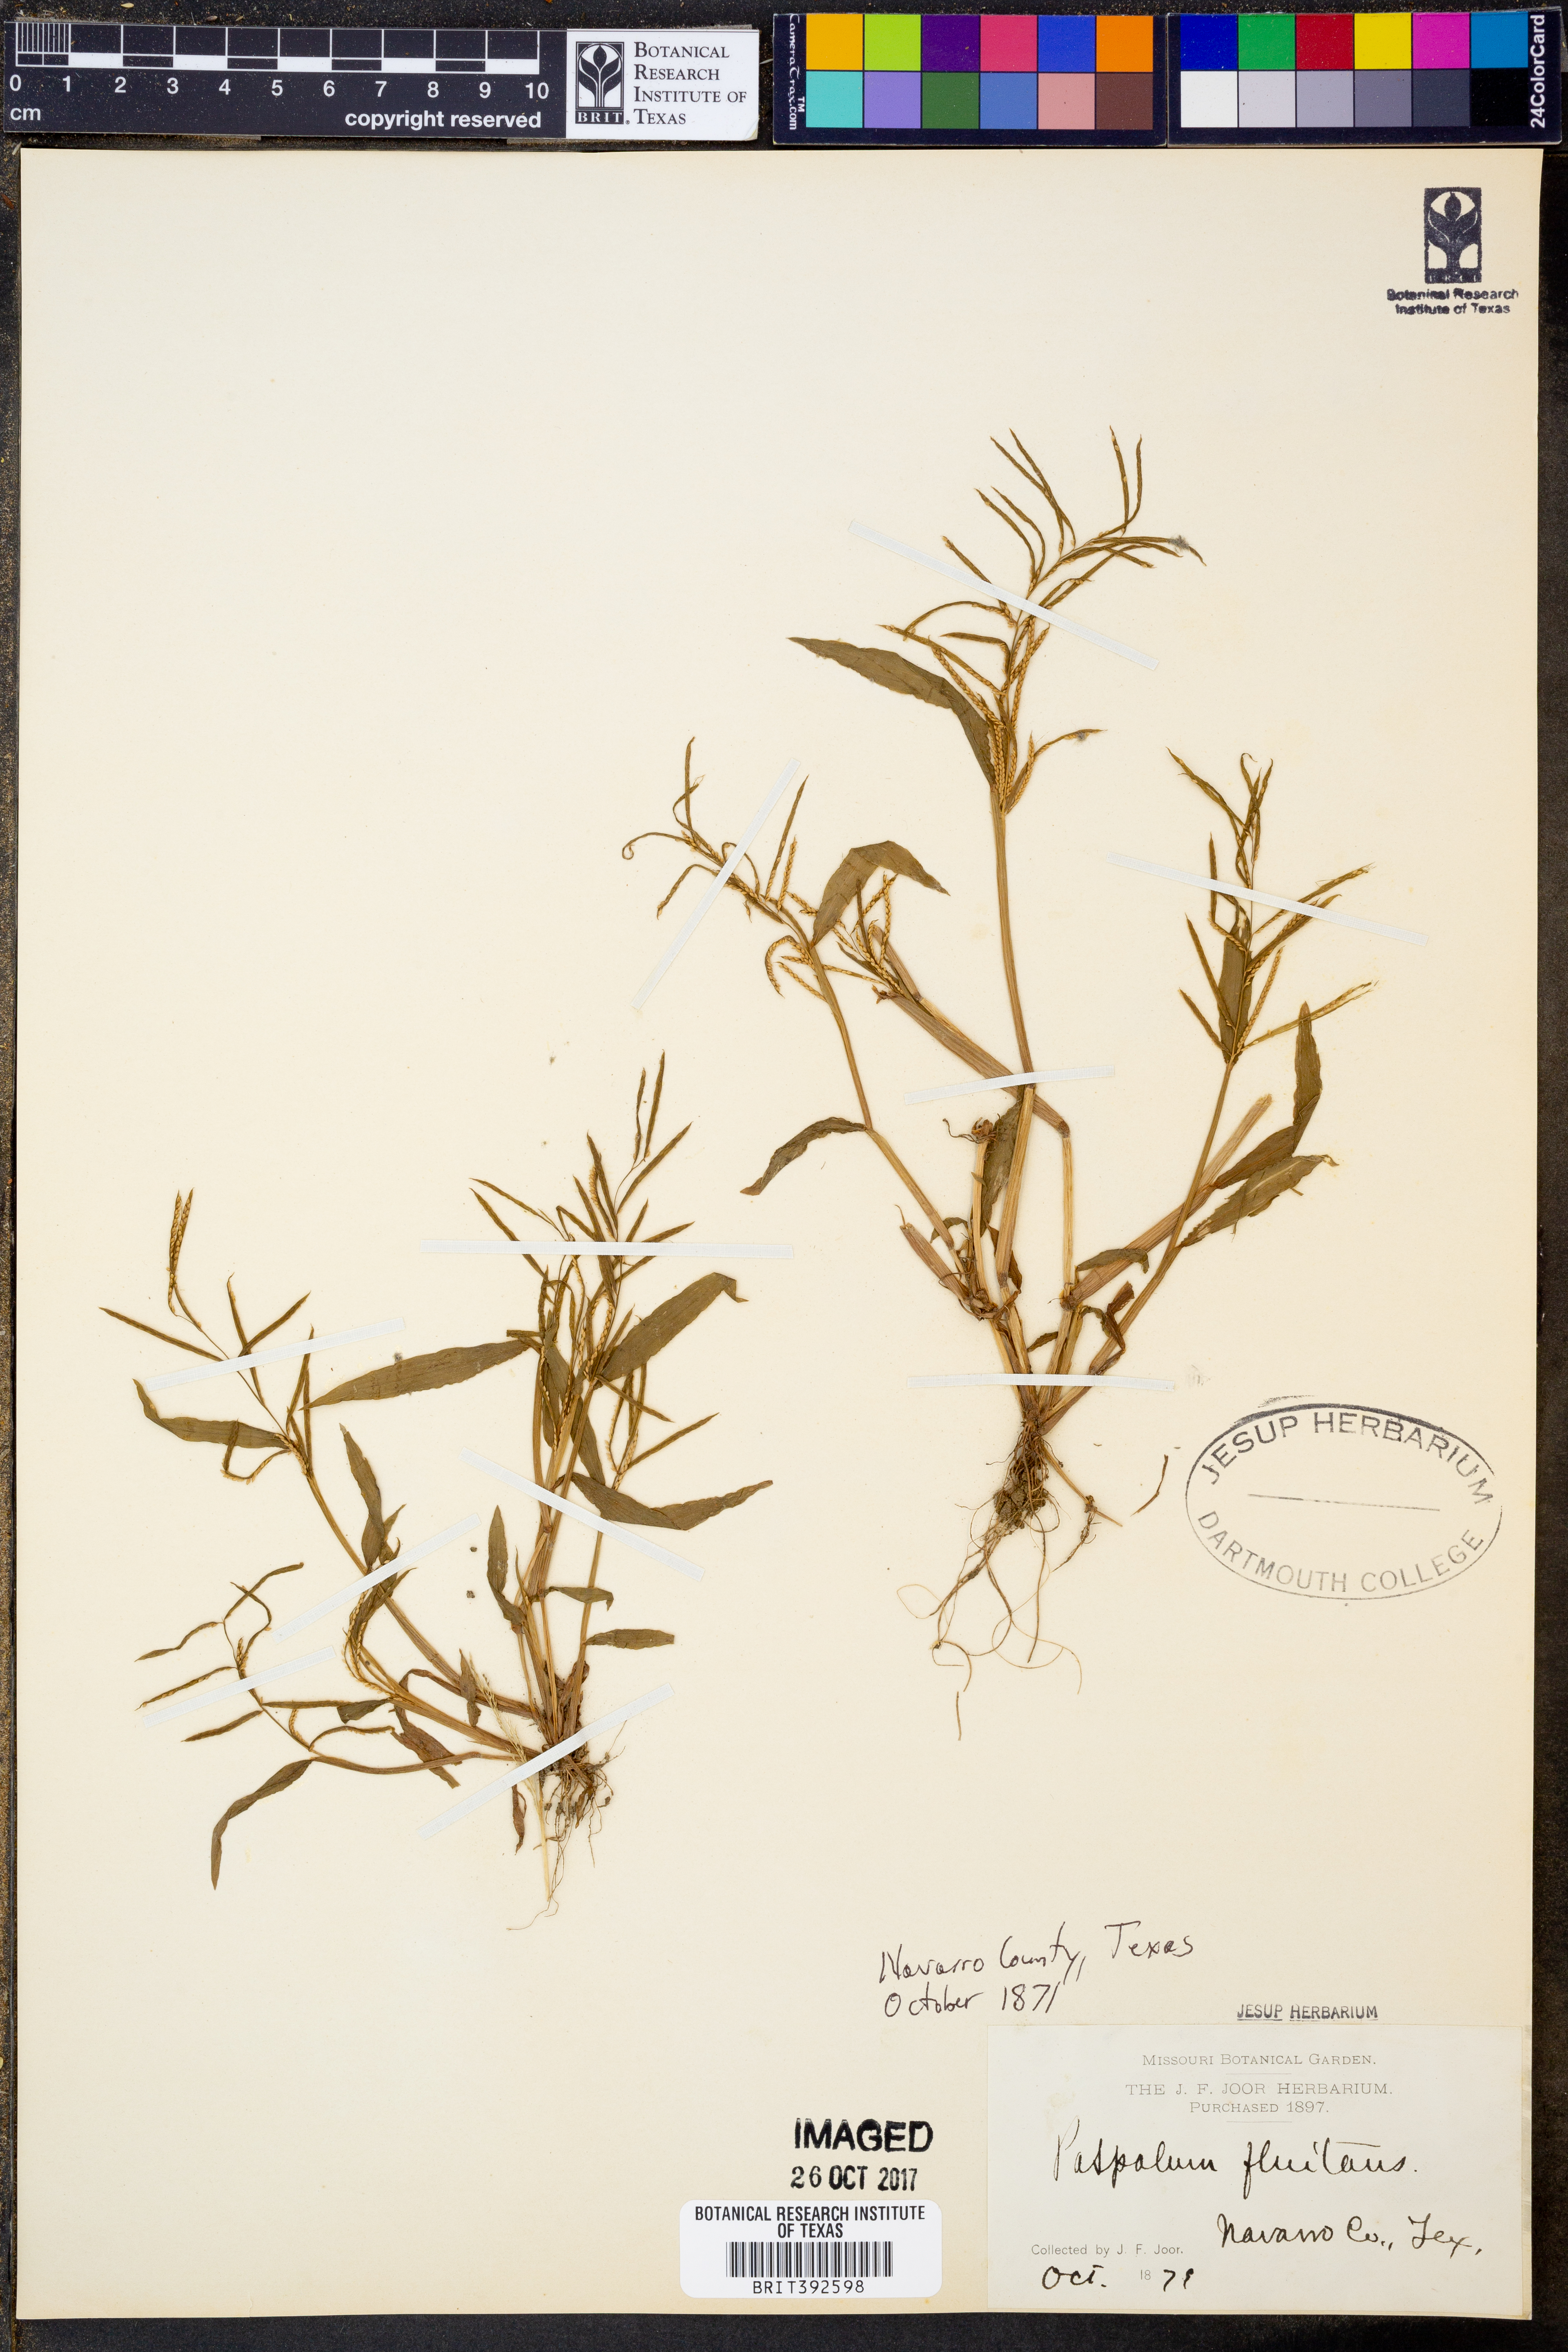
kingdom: Plantae
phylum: Tracheophyta
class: Liliopsida
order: Poales
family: Poaceae
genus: Paspalum
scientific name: Paspalum repens
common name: Water paspalum
